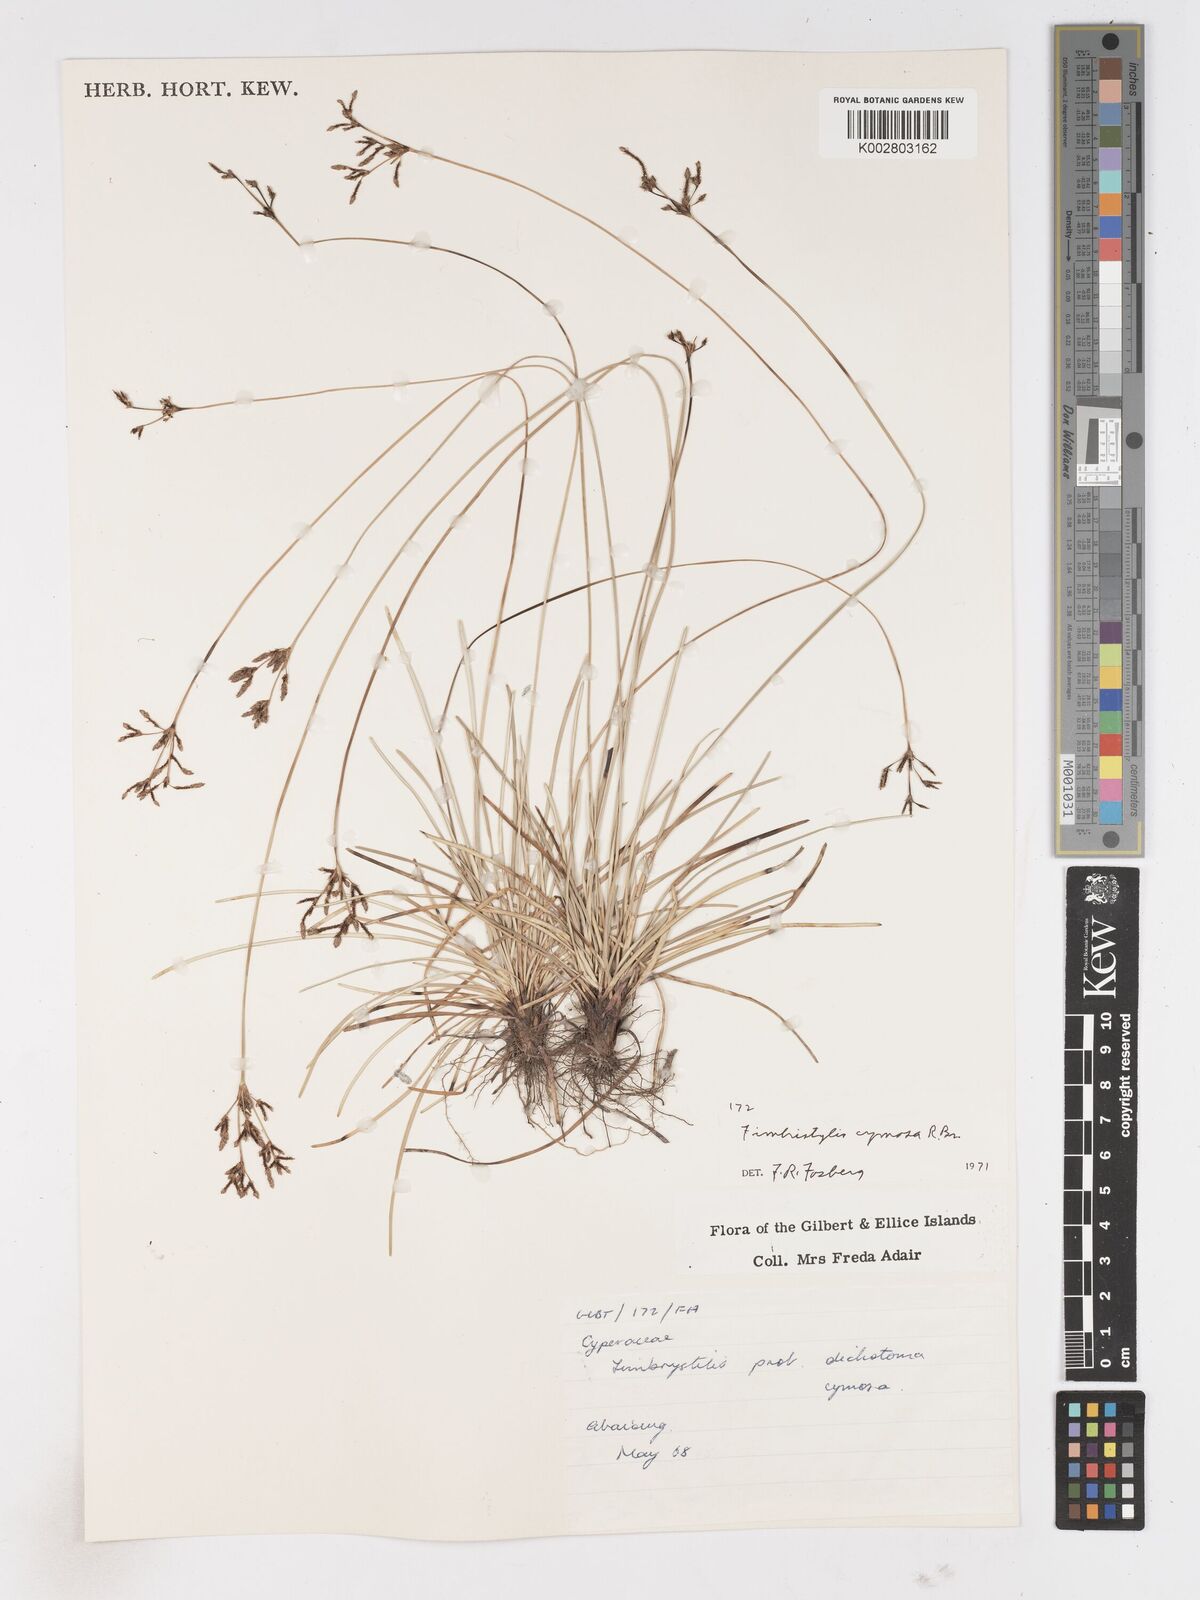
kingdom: Plantae
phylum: Tracheophyta
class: Liliopsida
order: Poales
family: Cyperaceae
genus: Fimbristylis
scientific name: Fimbristylis cymosa
